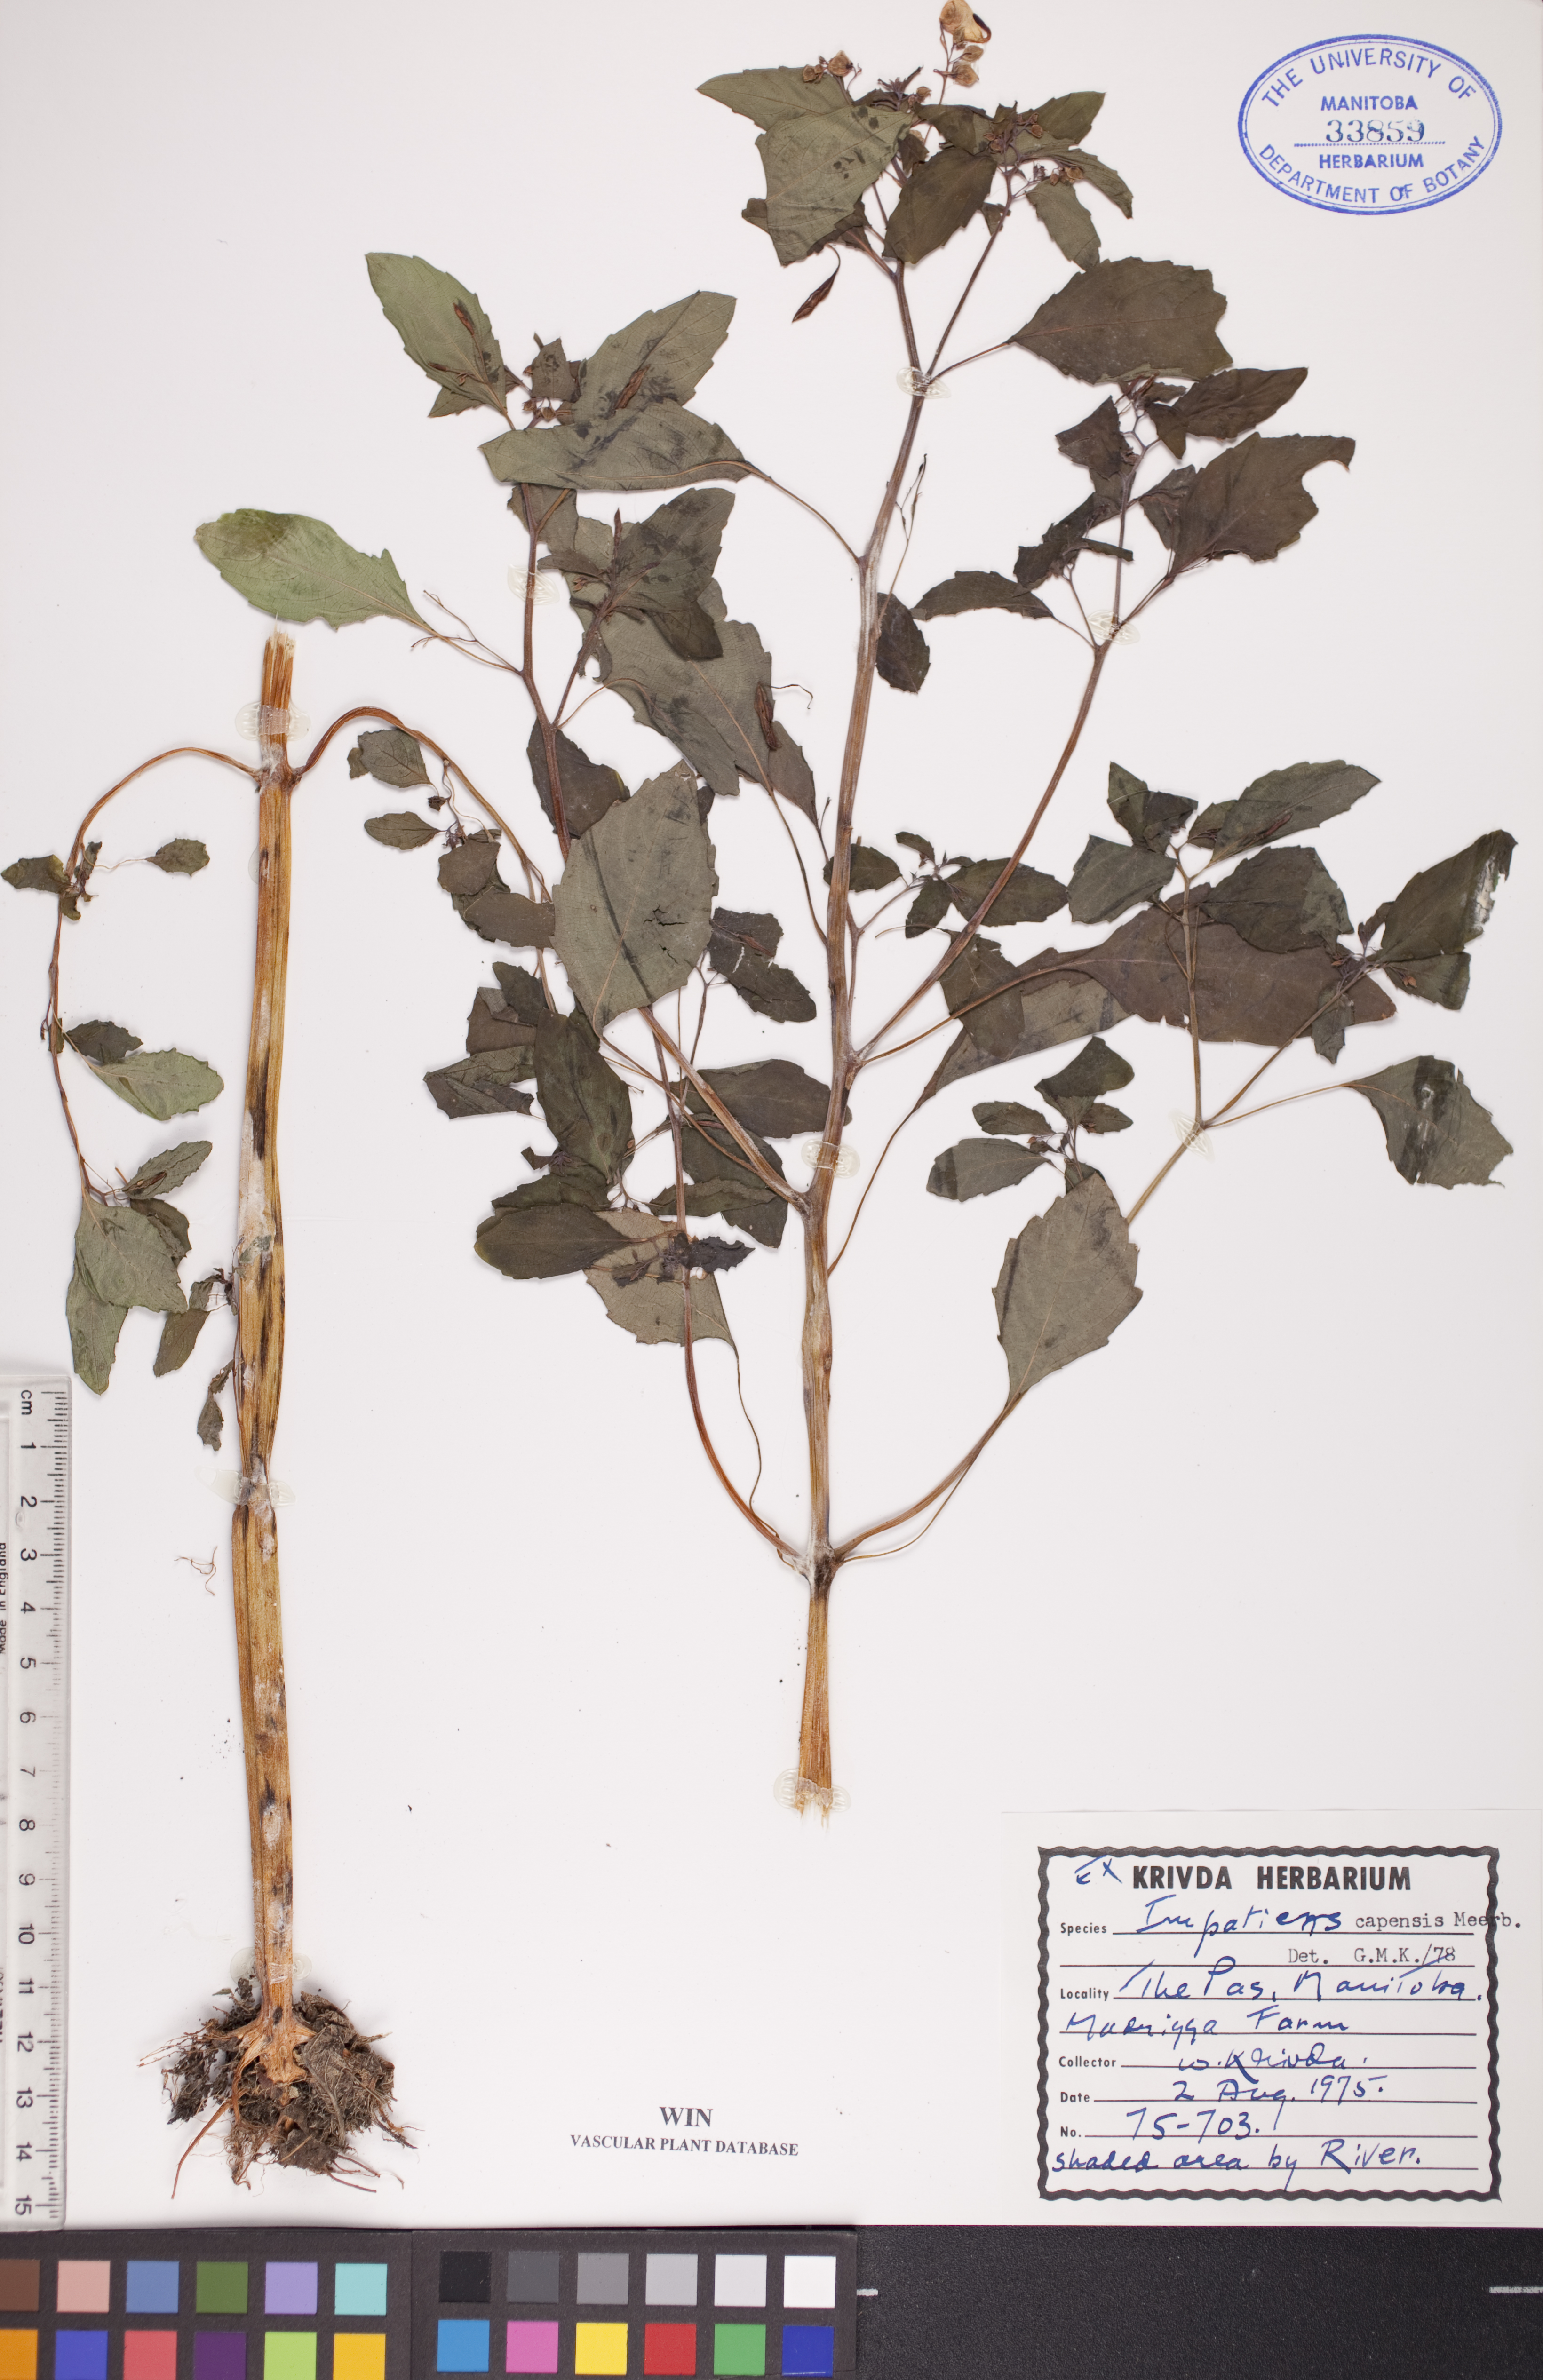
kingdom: Plantae
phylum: Tracheophyta
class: Magnoliopsida
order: Ericales
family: Balsaminaceae
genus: Impatiens
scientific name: Impatiens capensis
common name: Orange balsam
